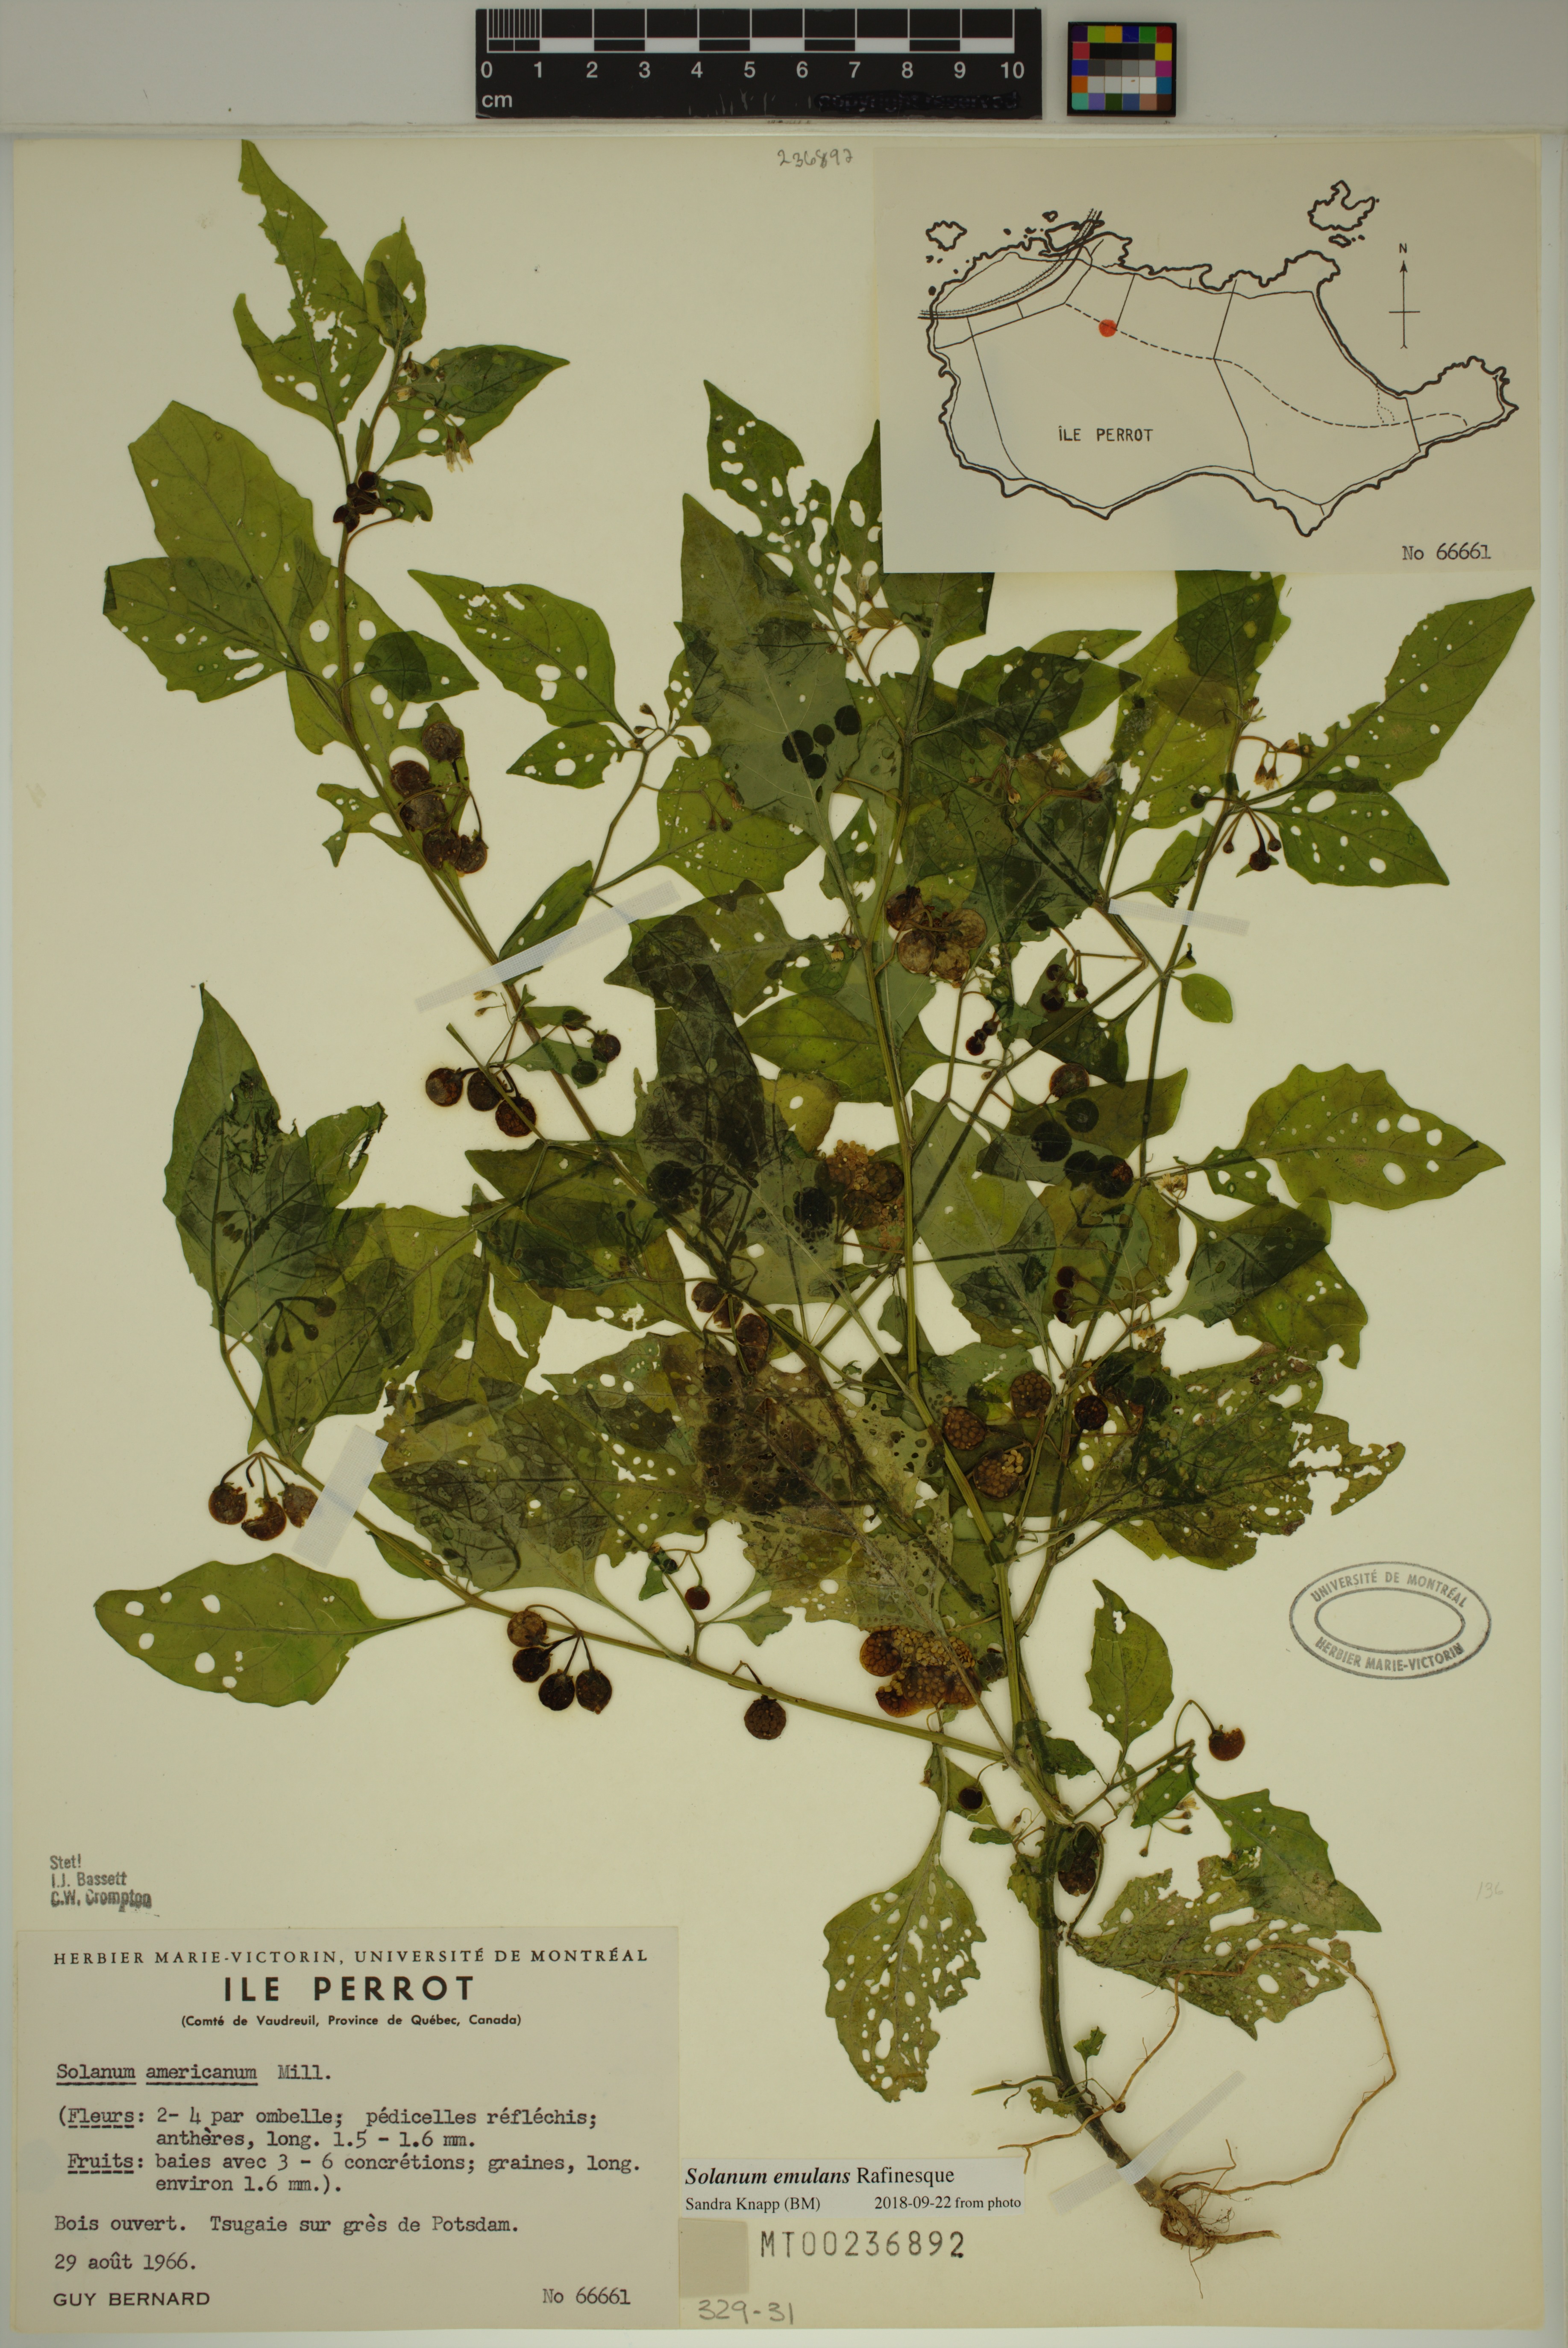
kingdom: Plantae
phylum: Tracheophyta
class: Magnoliopsida
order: Solanales
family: Solanaceae
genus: Solanum
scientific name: Solanum emulans
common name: Eastern black nightshade
